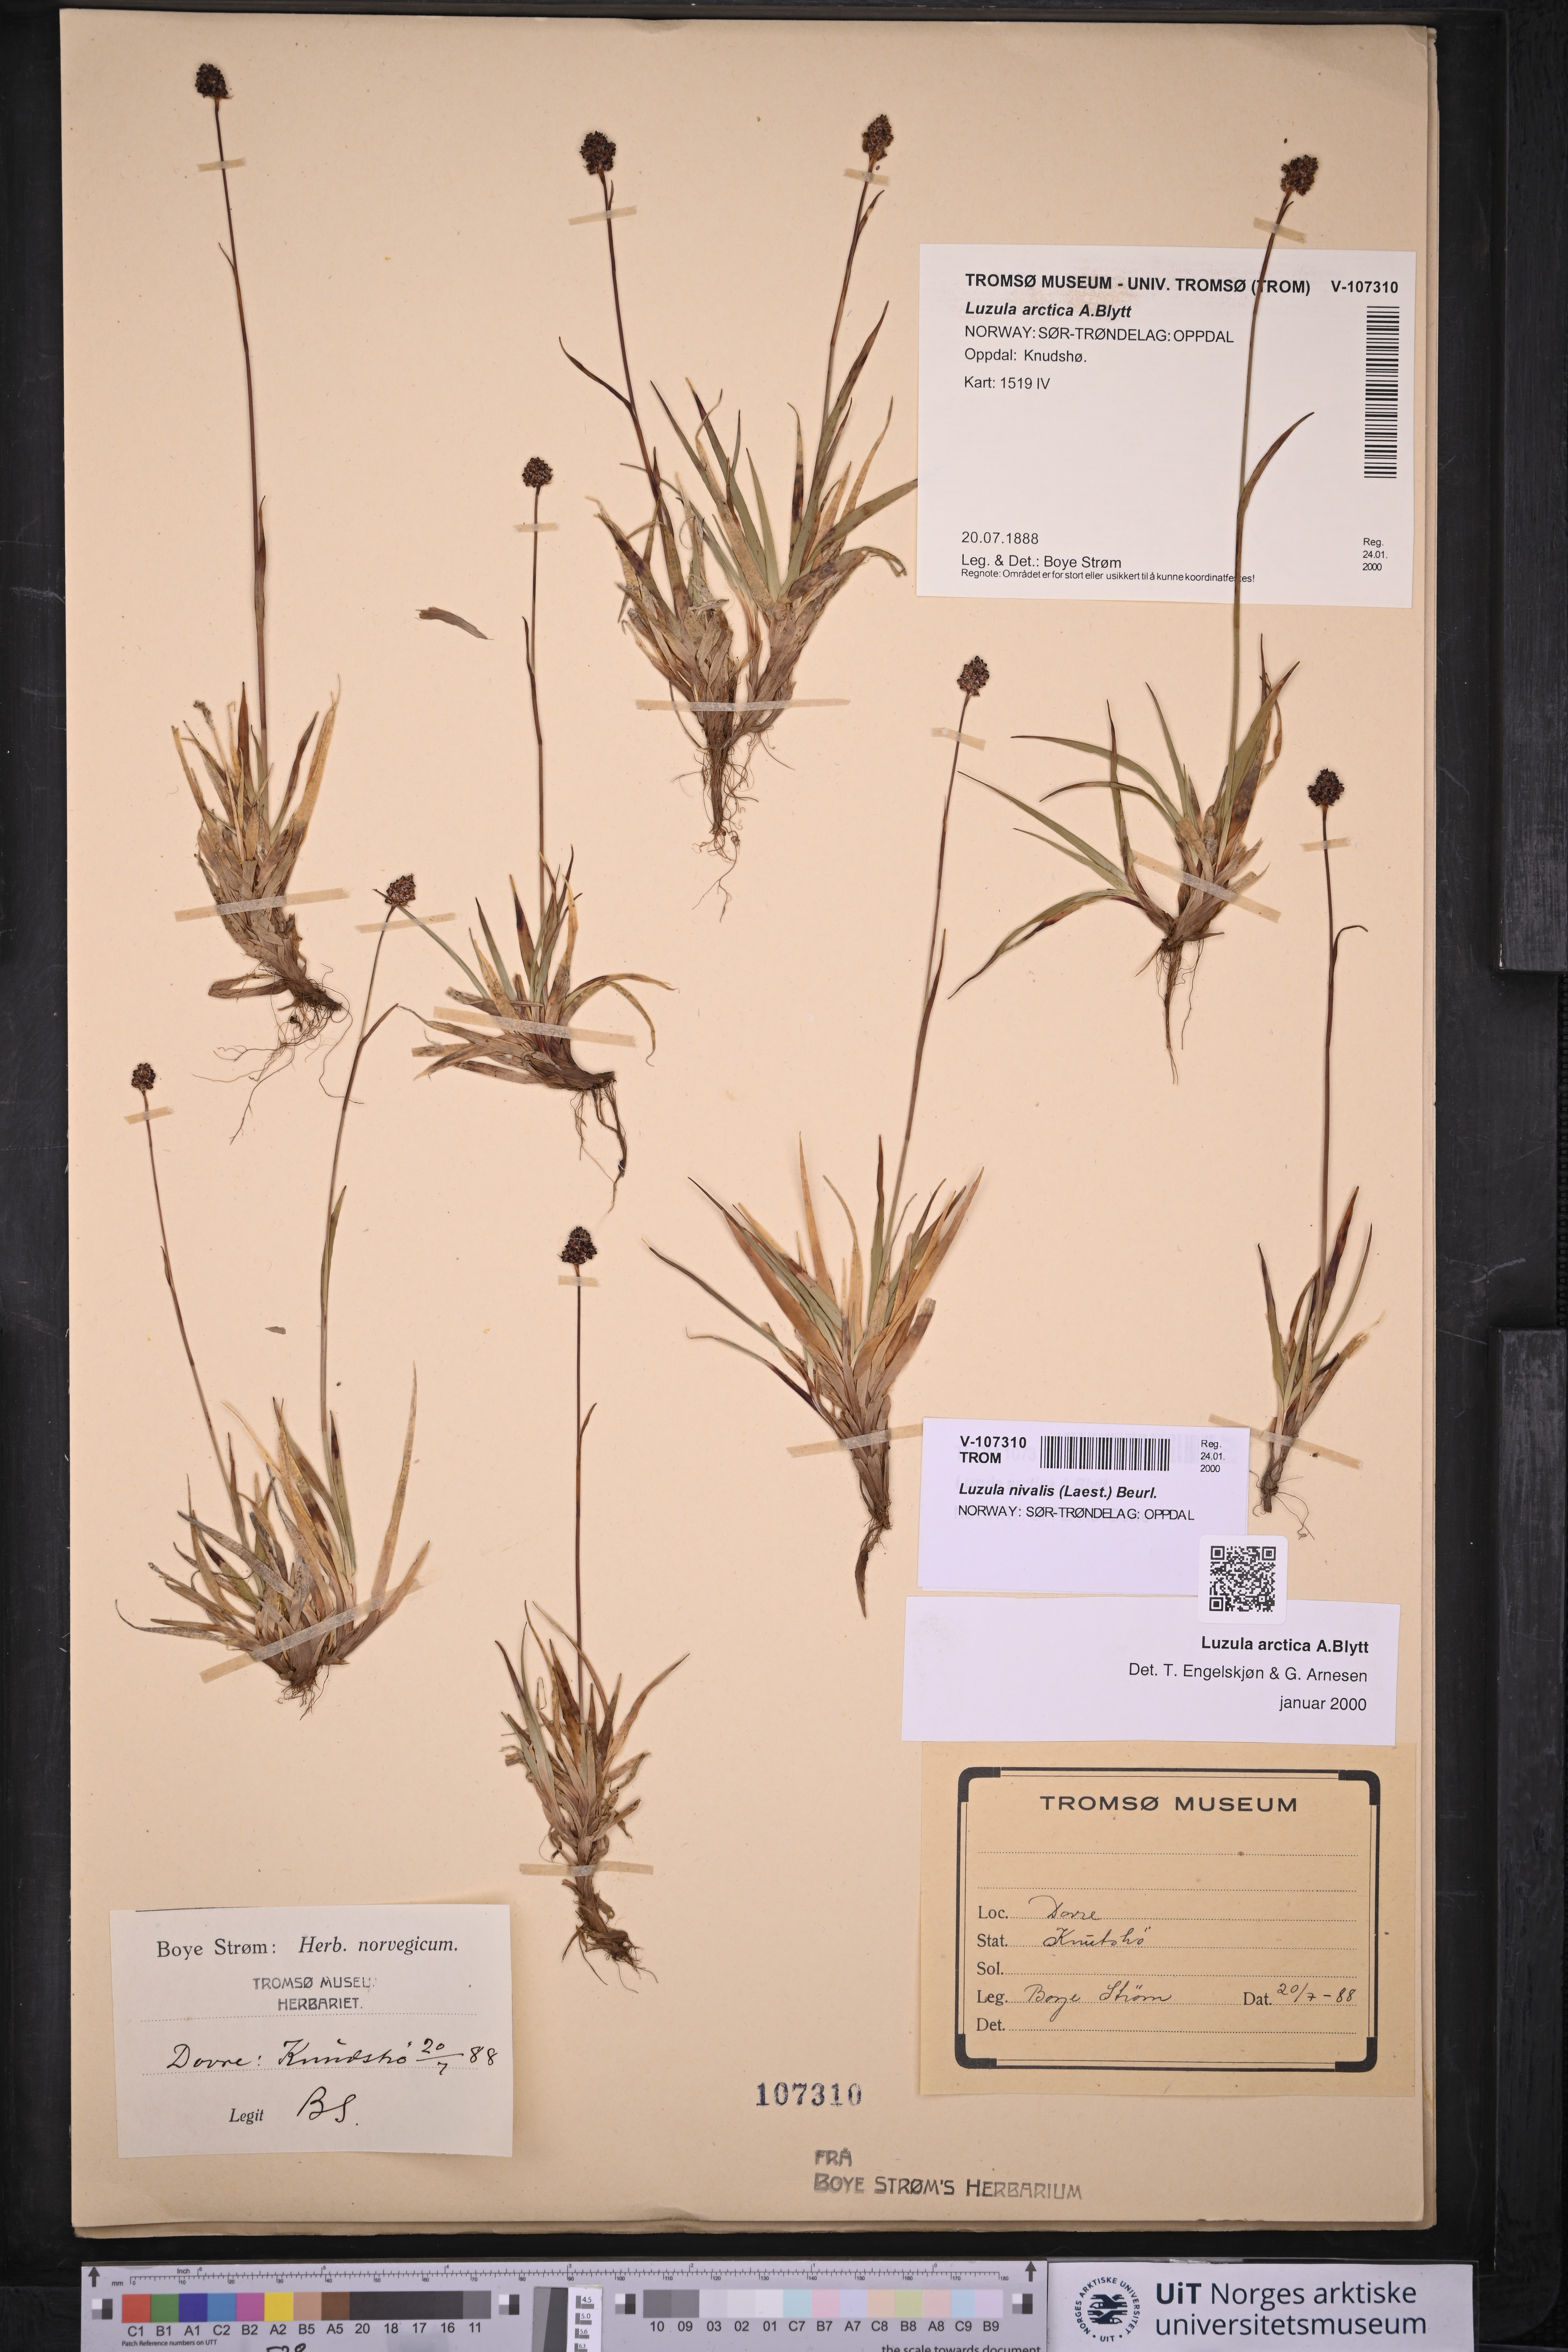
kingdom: Plantae
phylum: Tracheophyta
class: Liliopsida
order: Poales
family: Juncaceae
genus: Luzula
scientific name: Luzula nivalis
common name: Arctic woodrush
